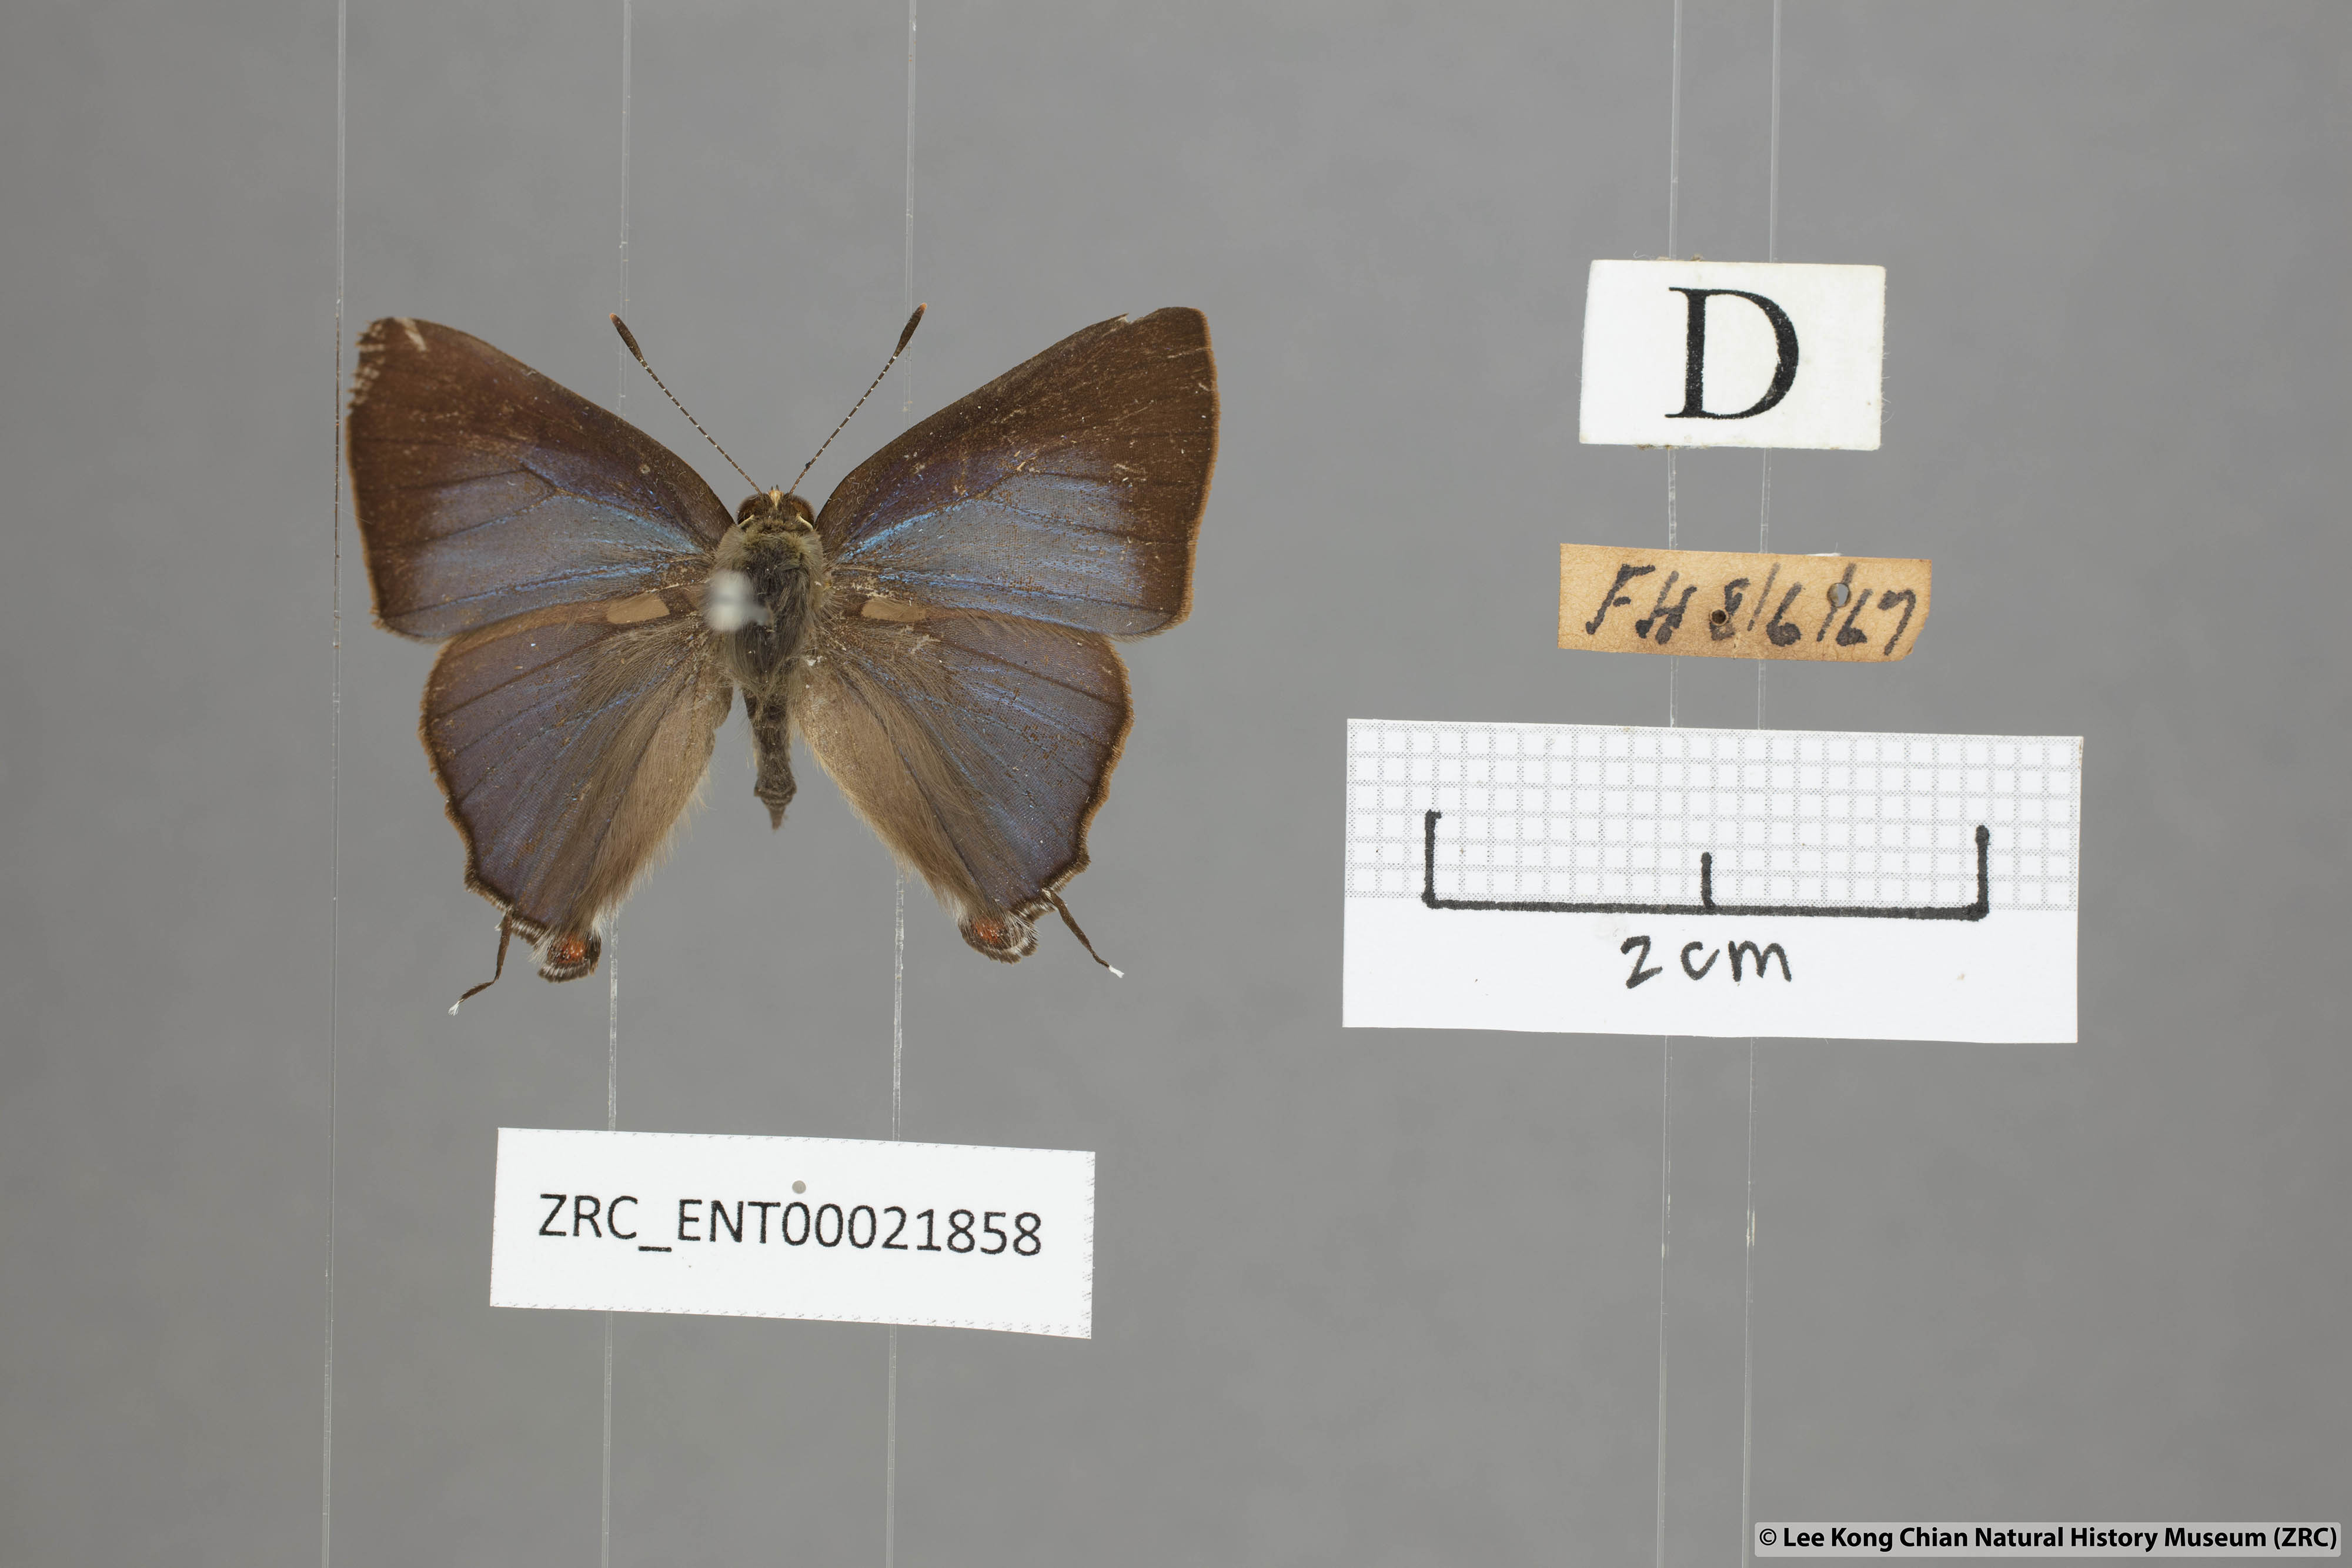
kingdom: Animalia
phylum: Arthropoda
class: Insecta
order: Lepidoptera
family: Lycaenidae
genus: Rapala
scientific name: Rapala nissa
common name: Common flash
